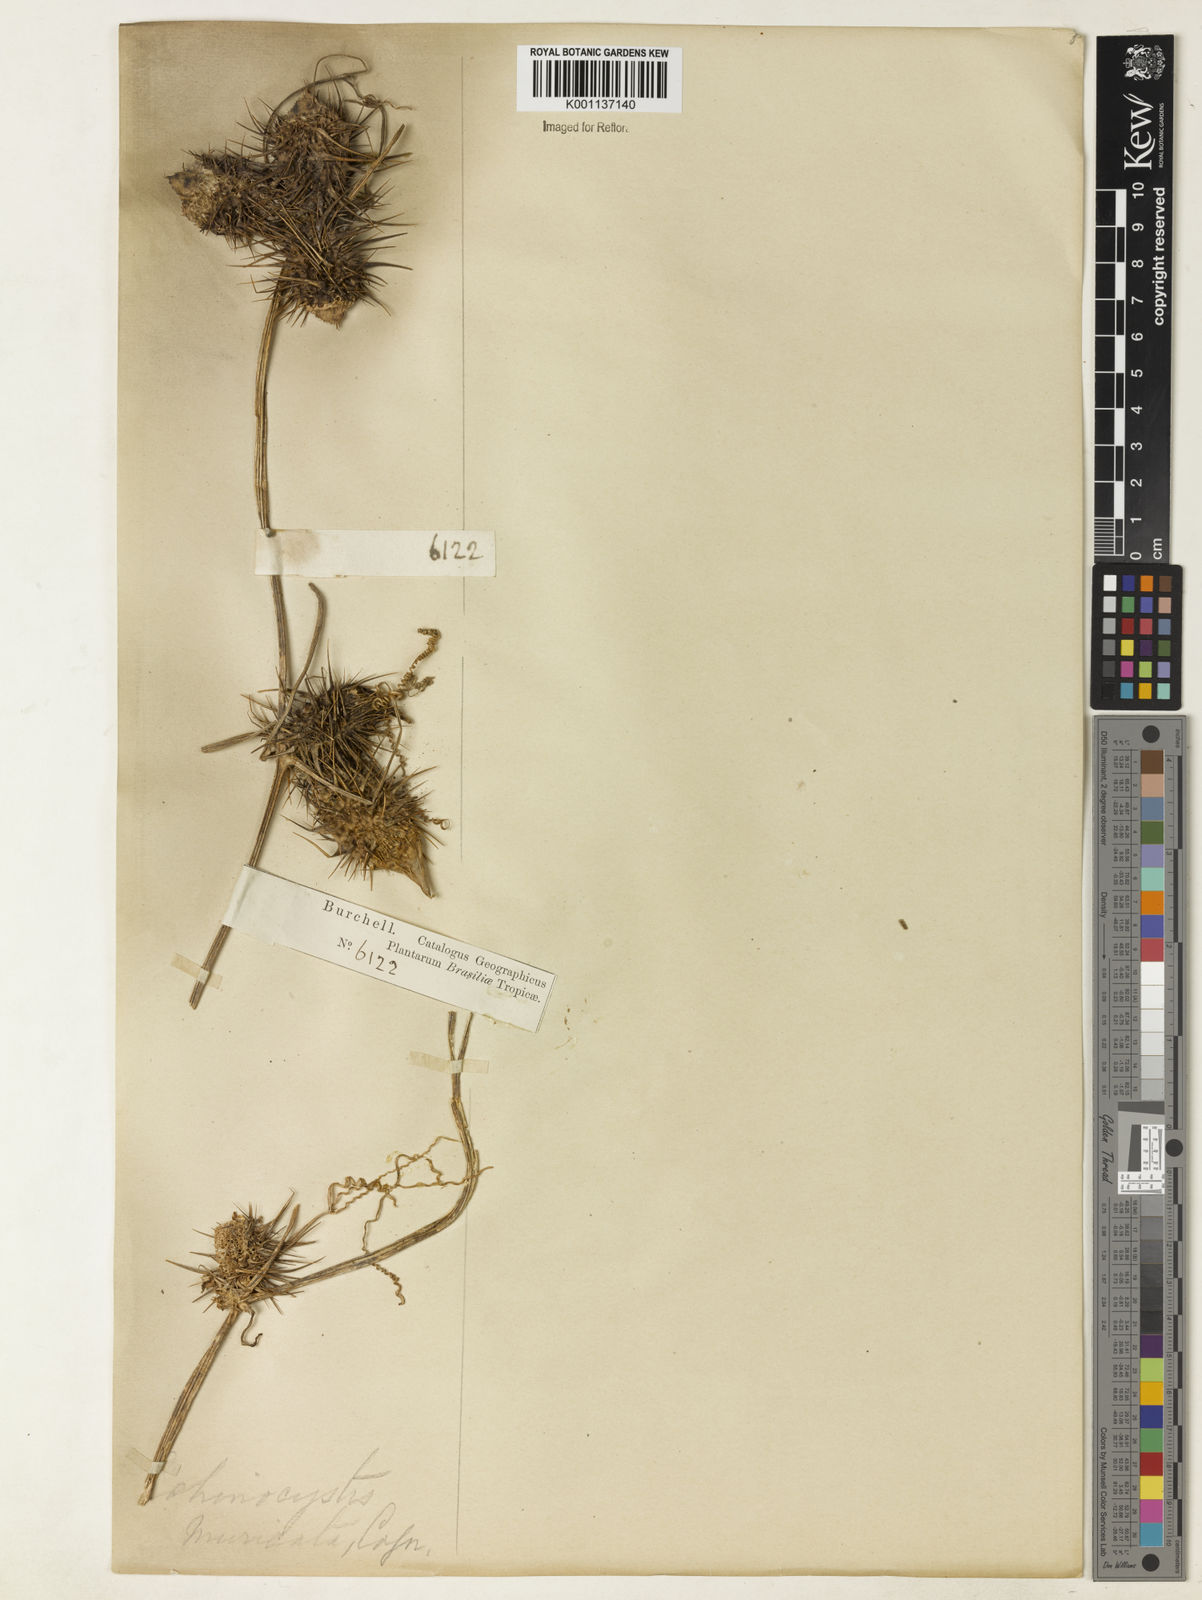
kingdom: Plantae
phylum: Tracheophyta
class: Magnoliopsida
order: Cucurbitales
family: Cucurbitaceae
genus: Echinopepon
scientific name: Echinopepon racemosus
